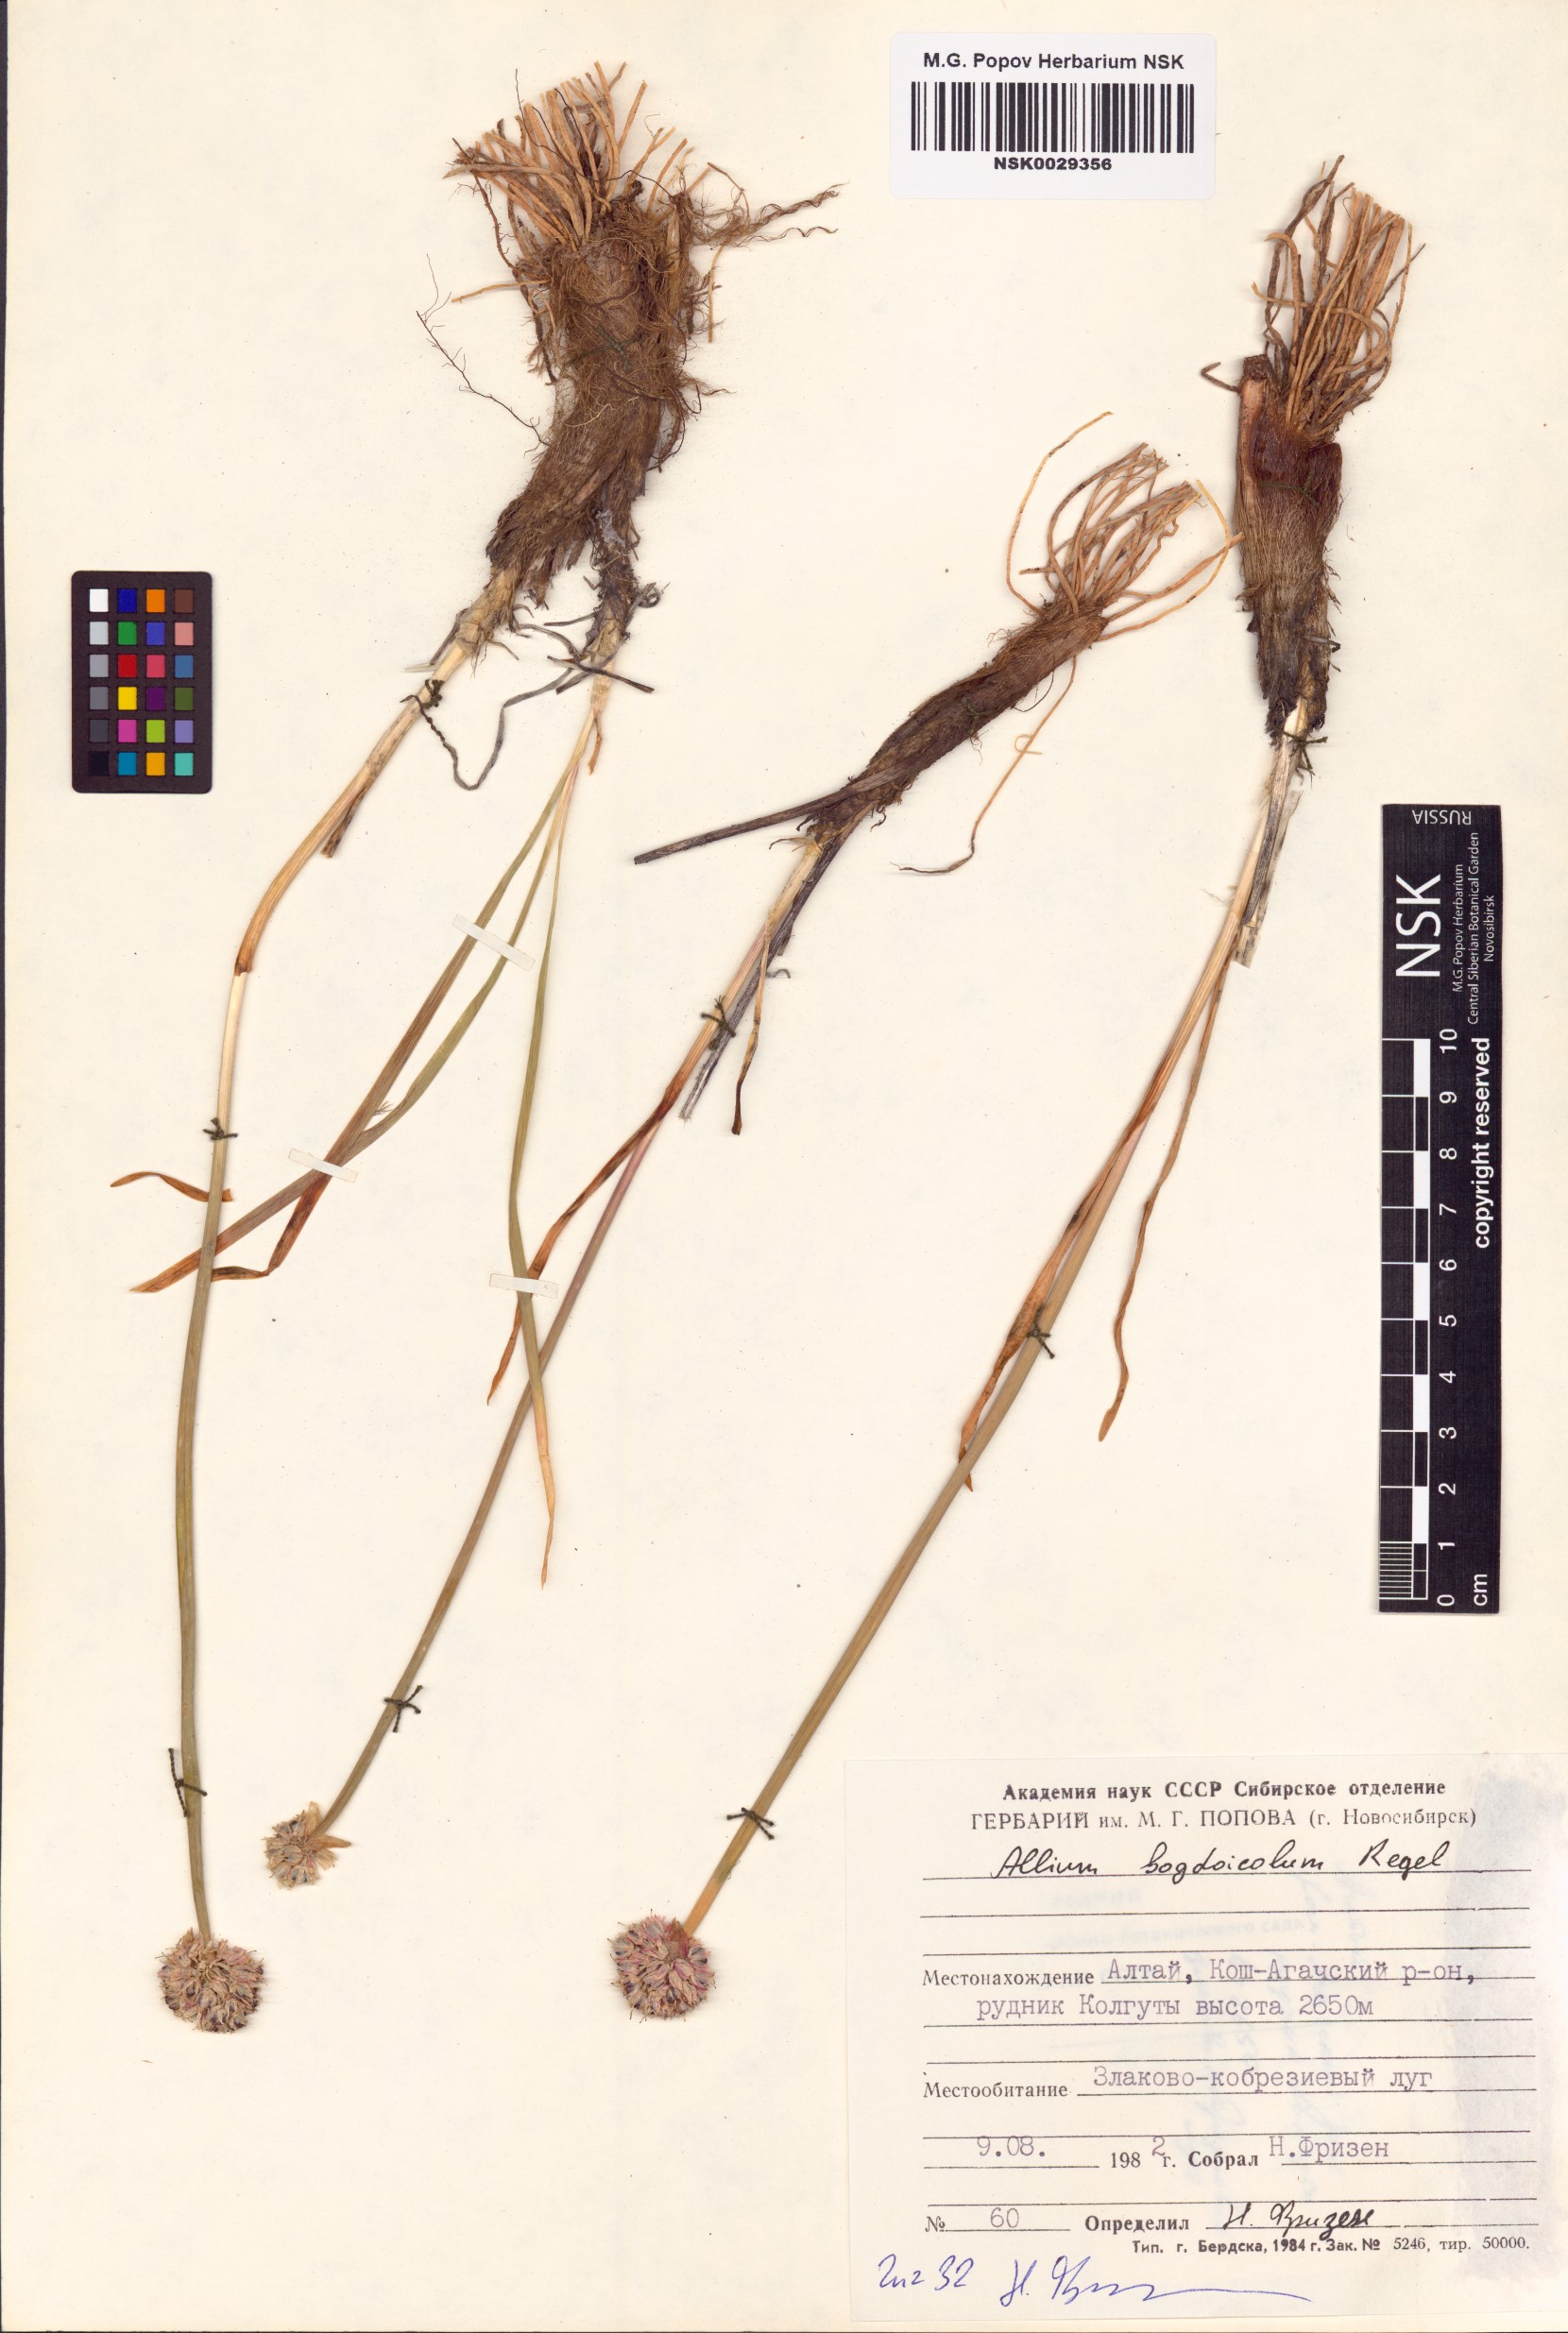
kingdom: Plantae
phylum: Tracheophyta
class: Liliopsida
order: Asparagales
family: Amaryllidaceae
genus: Allium
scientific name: Allium schrenkii
